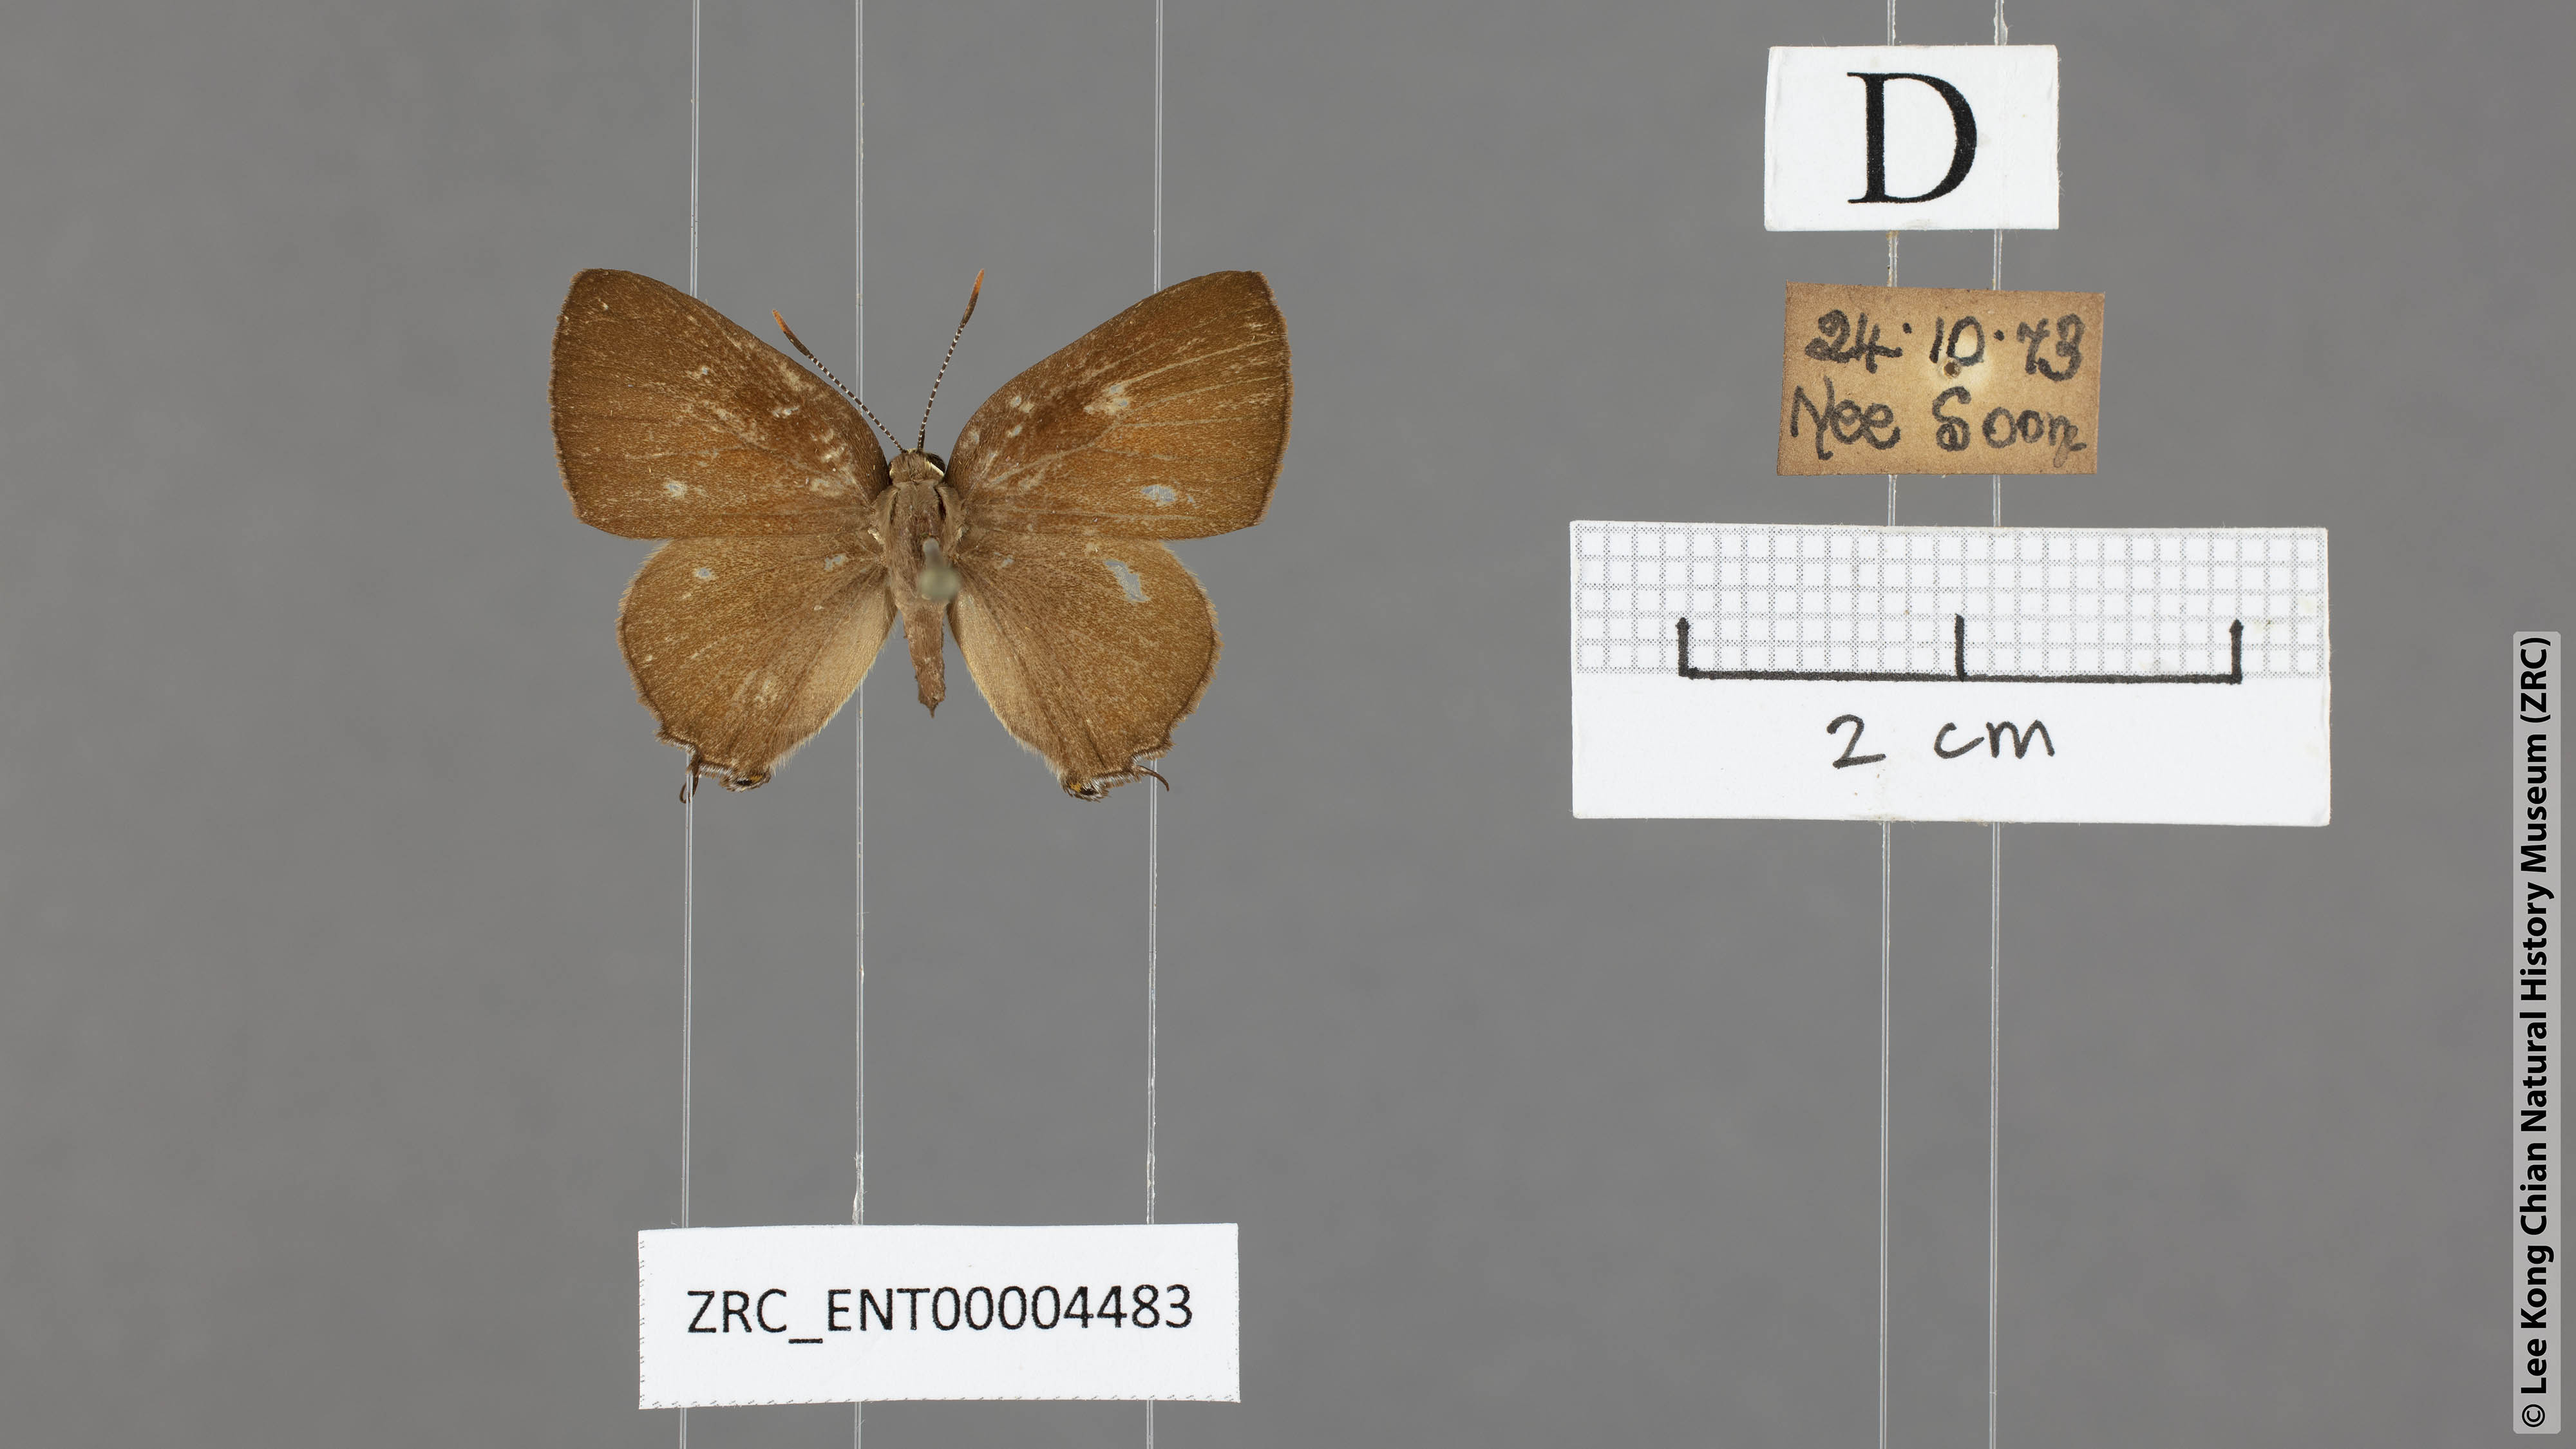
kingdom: Animalia
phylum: Arthropoda
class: Insecta
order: Lepidoptera
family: Lycaenidae
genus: Rapala
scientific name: Rapala dieneces
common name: Scarlet flash
